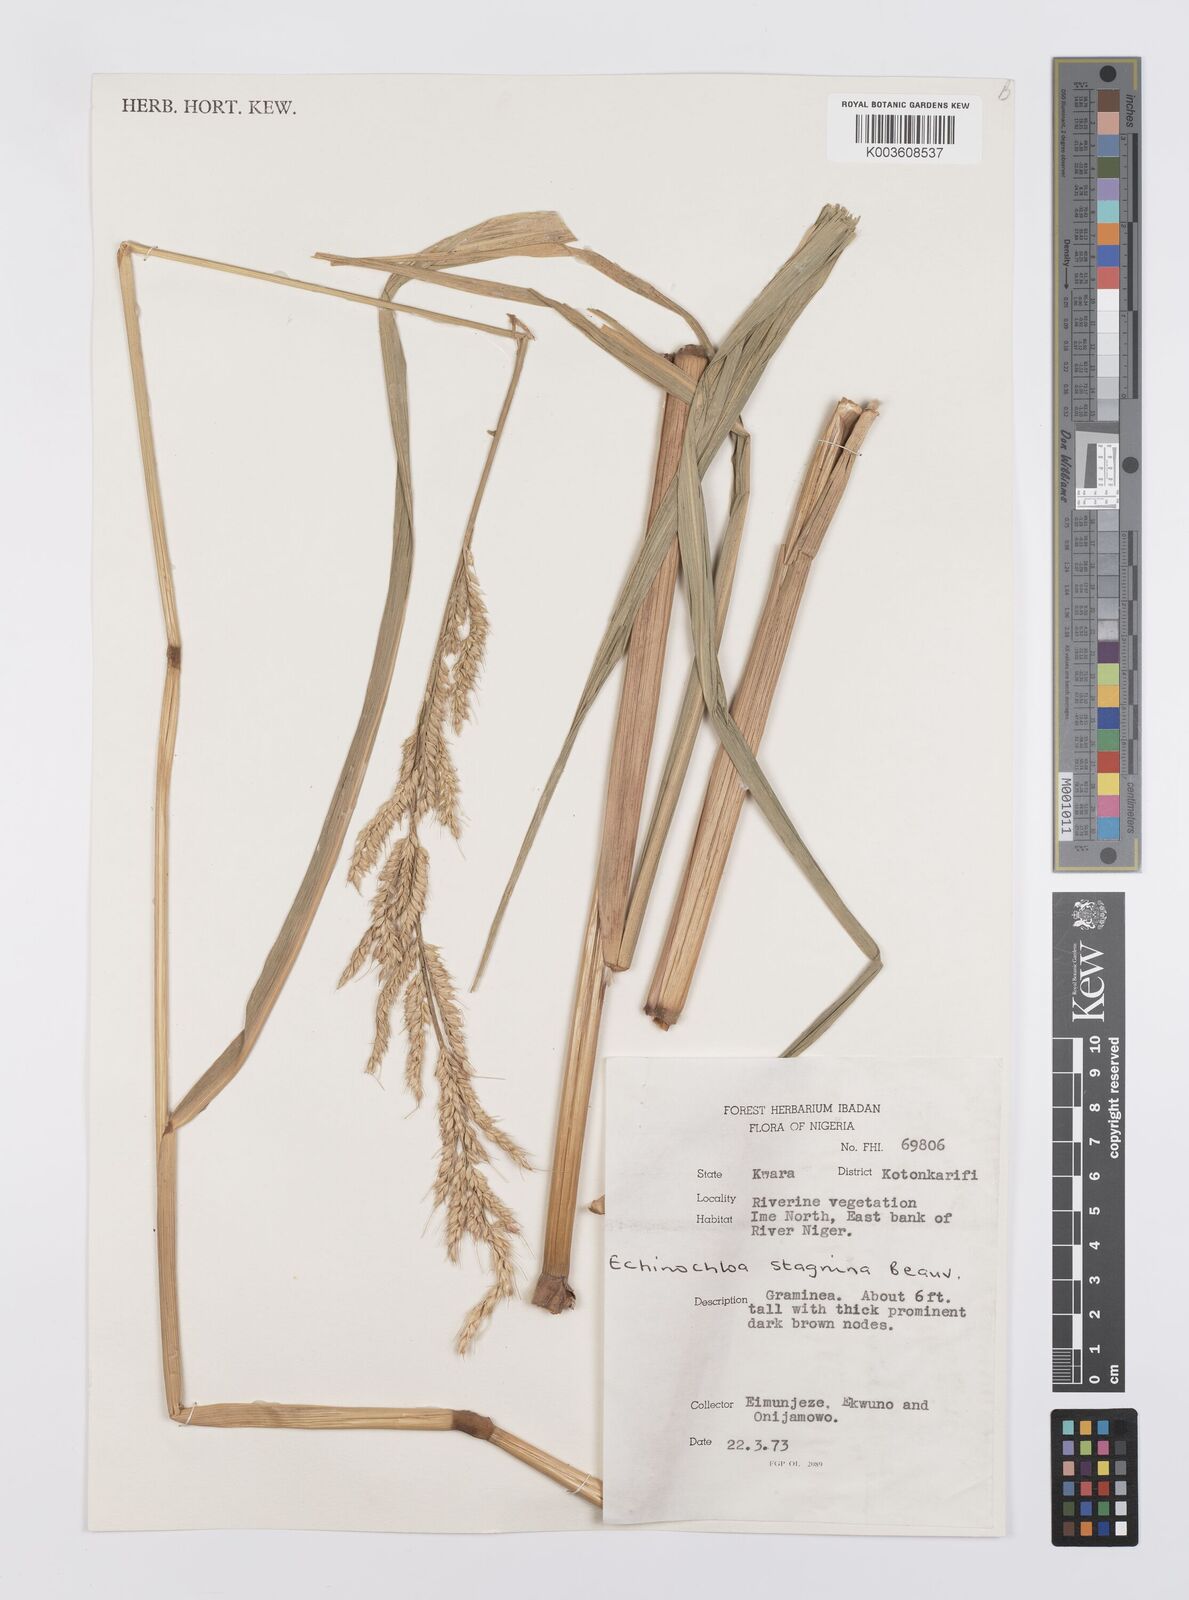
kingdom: Plantae
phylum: Tracheophyta
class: Liliopsida
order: Poales
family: Poaceae
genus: Echinochloa
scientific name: Echinochloa stagnina
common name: Burgu grass
